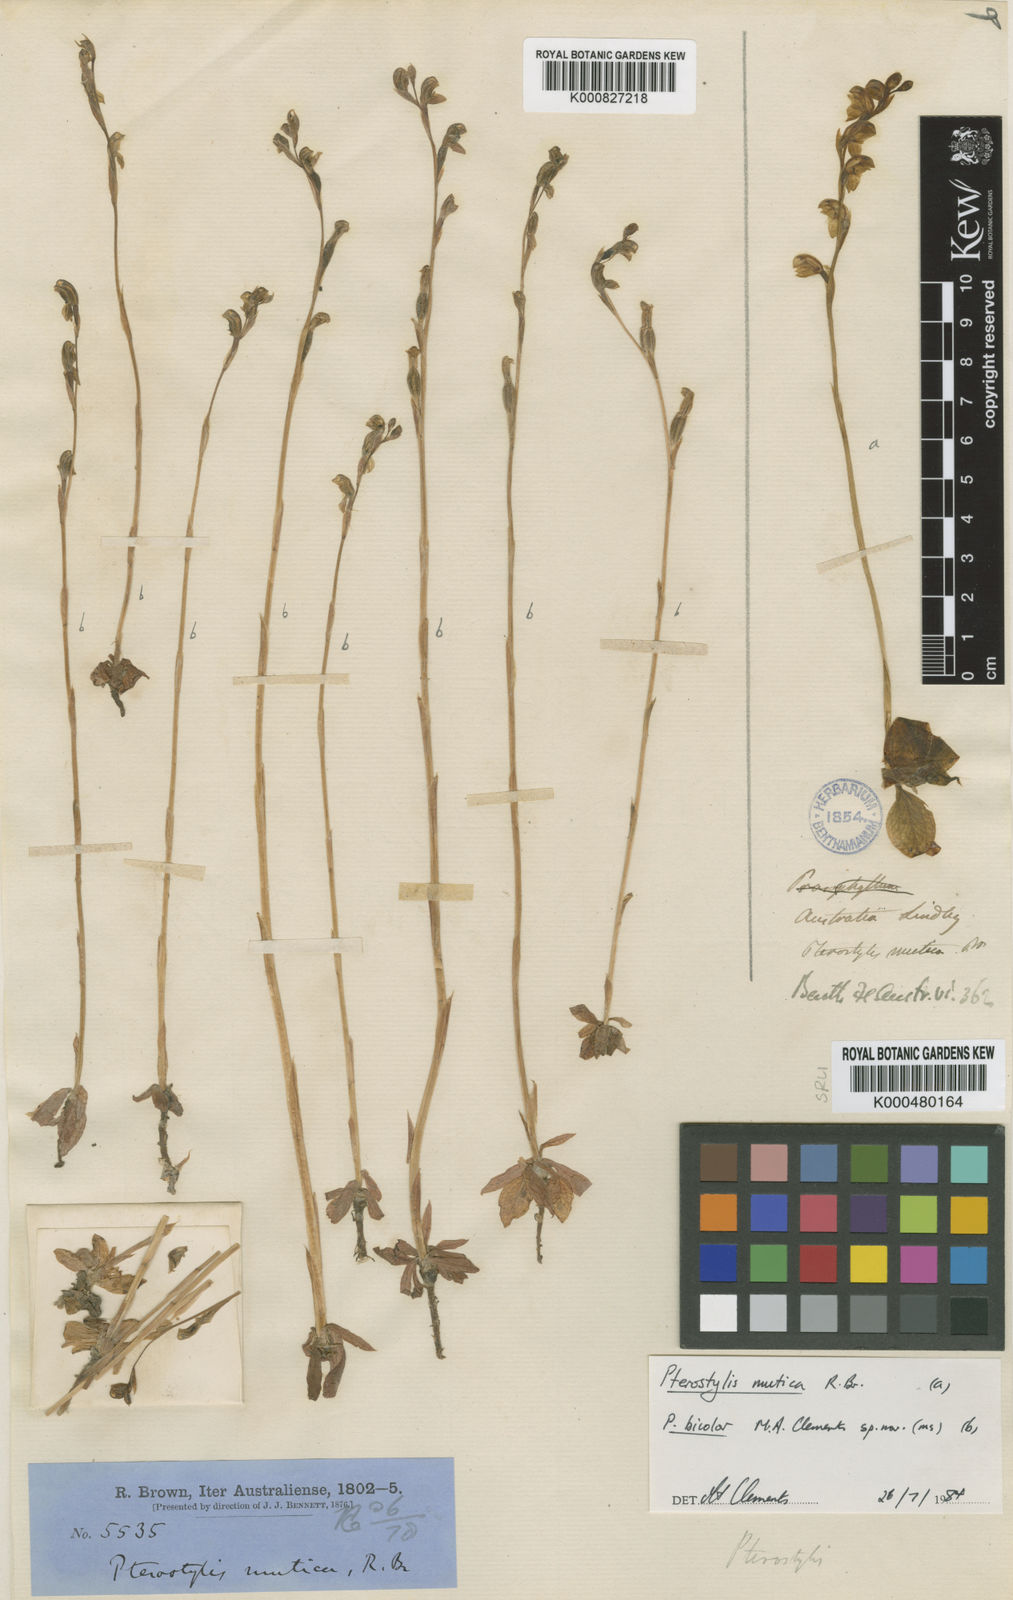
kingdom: Plantae
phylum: Tracheophyta
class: Liliopsida
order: Asparagales
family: Orchidaceae
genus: Pterostylis
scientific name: Pterostylis mutica
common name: Midget greenhood
